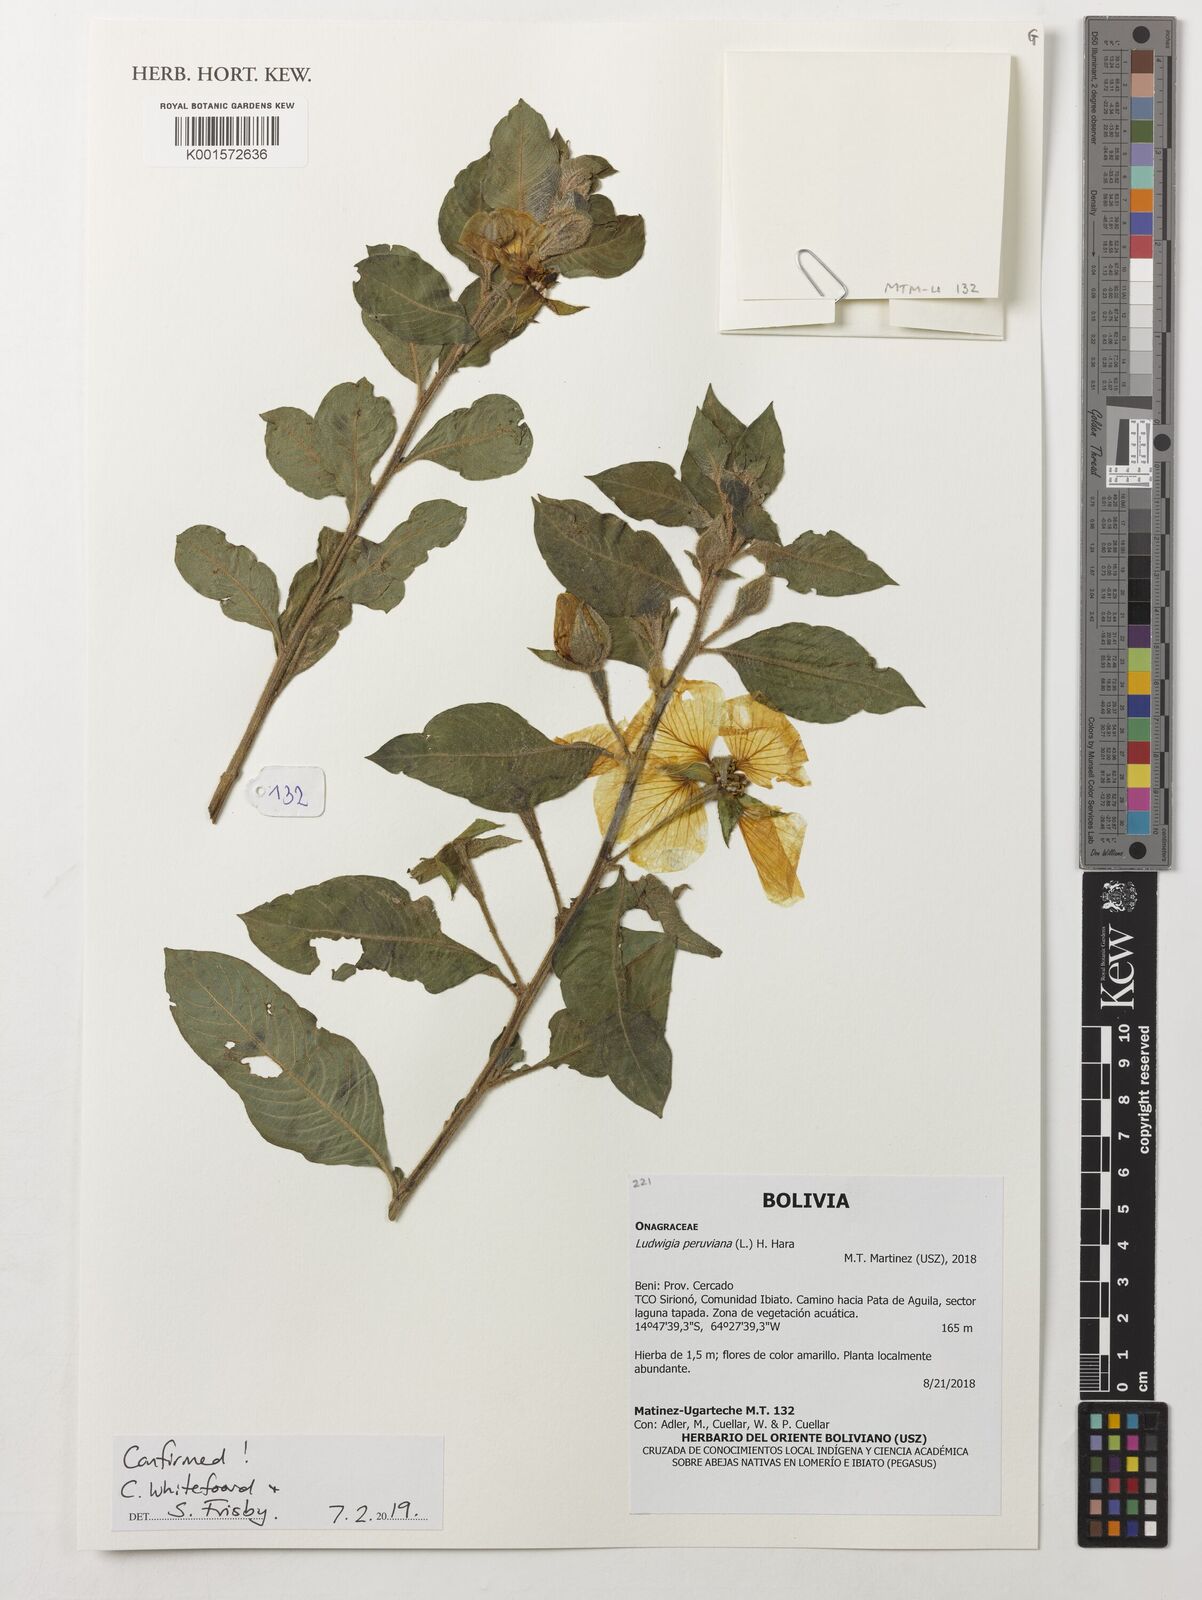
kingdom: Plantae
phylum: Tracheophyta
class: Magnoliopsida
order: Myrtales
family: Onagraceae
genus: Ludwigia
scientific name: Ludwigia peruviana
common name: Peruvian primrose-willow
